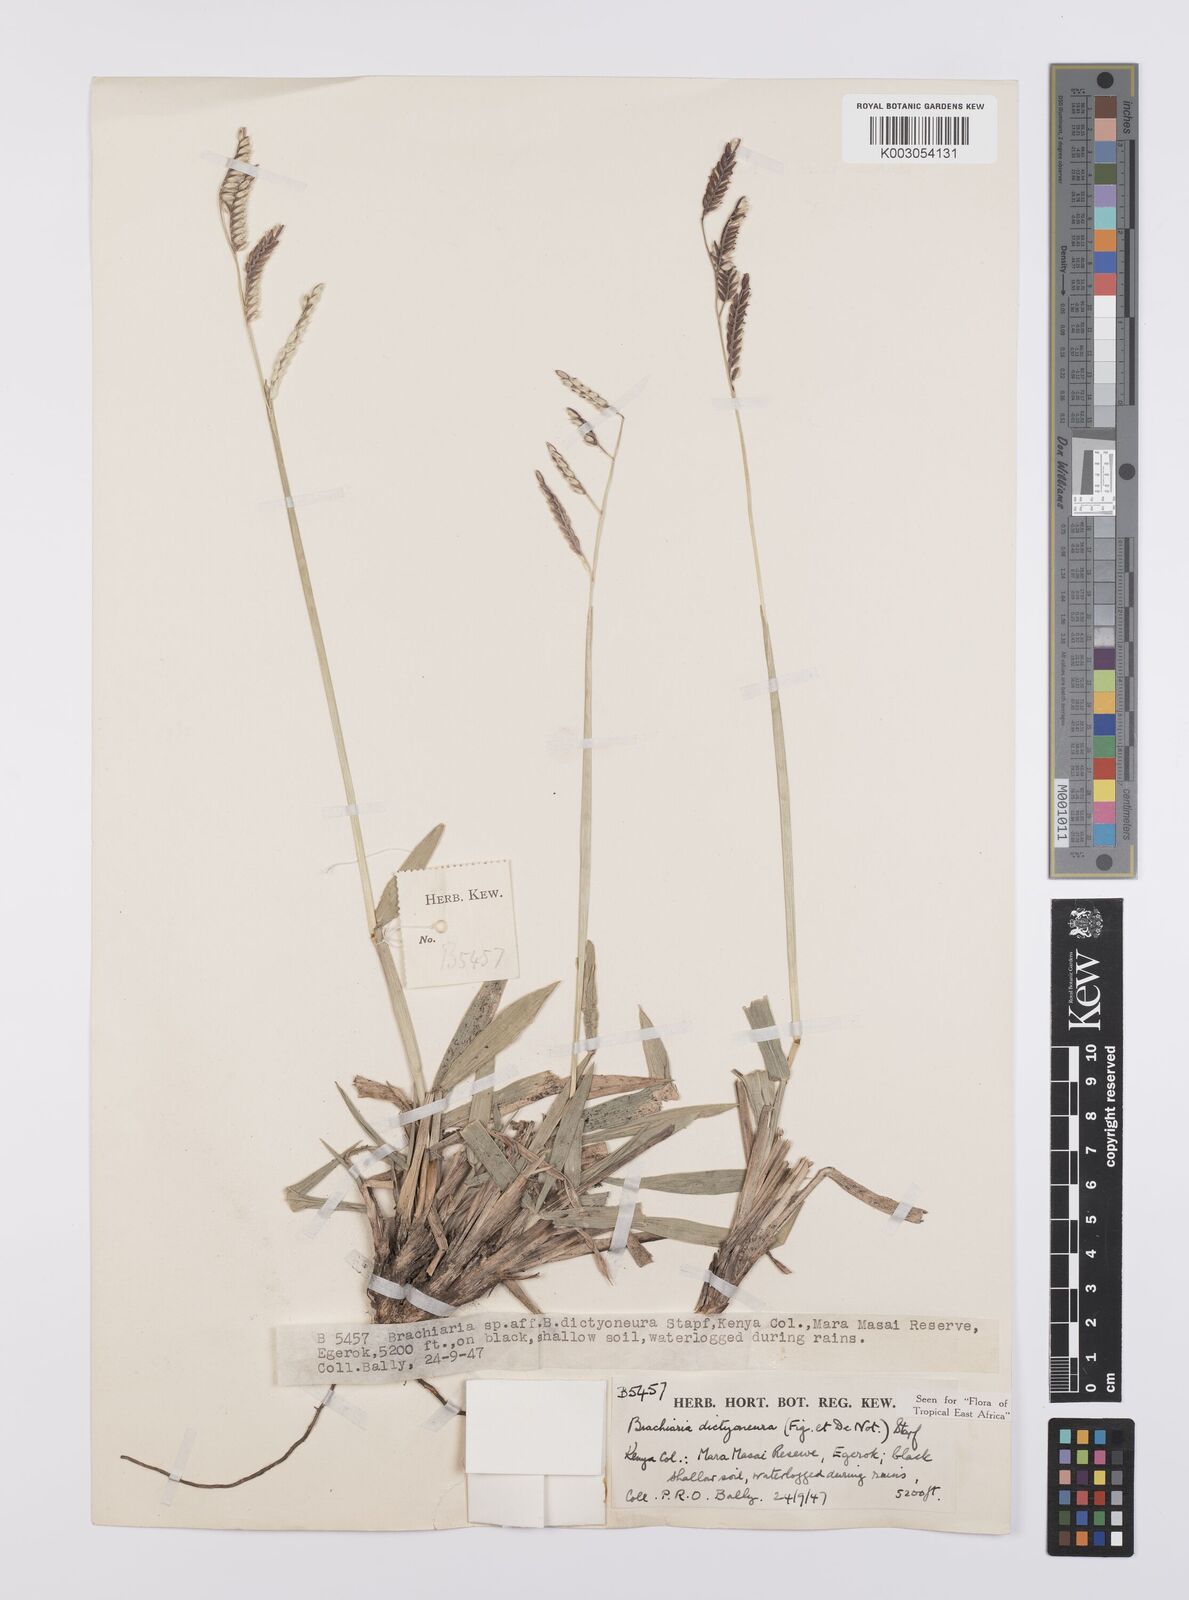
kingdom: Plantae
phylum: Tracheophyta
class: Liliopsida
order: Poales
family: Poaceae
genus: Urochloa
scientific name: Urochloa dictyoneura
